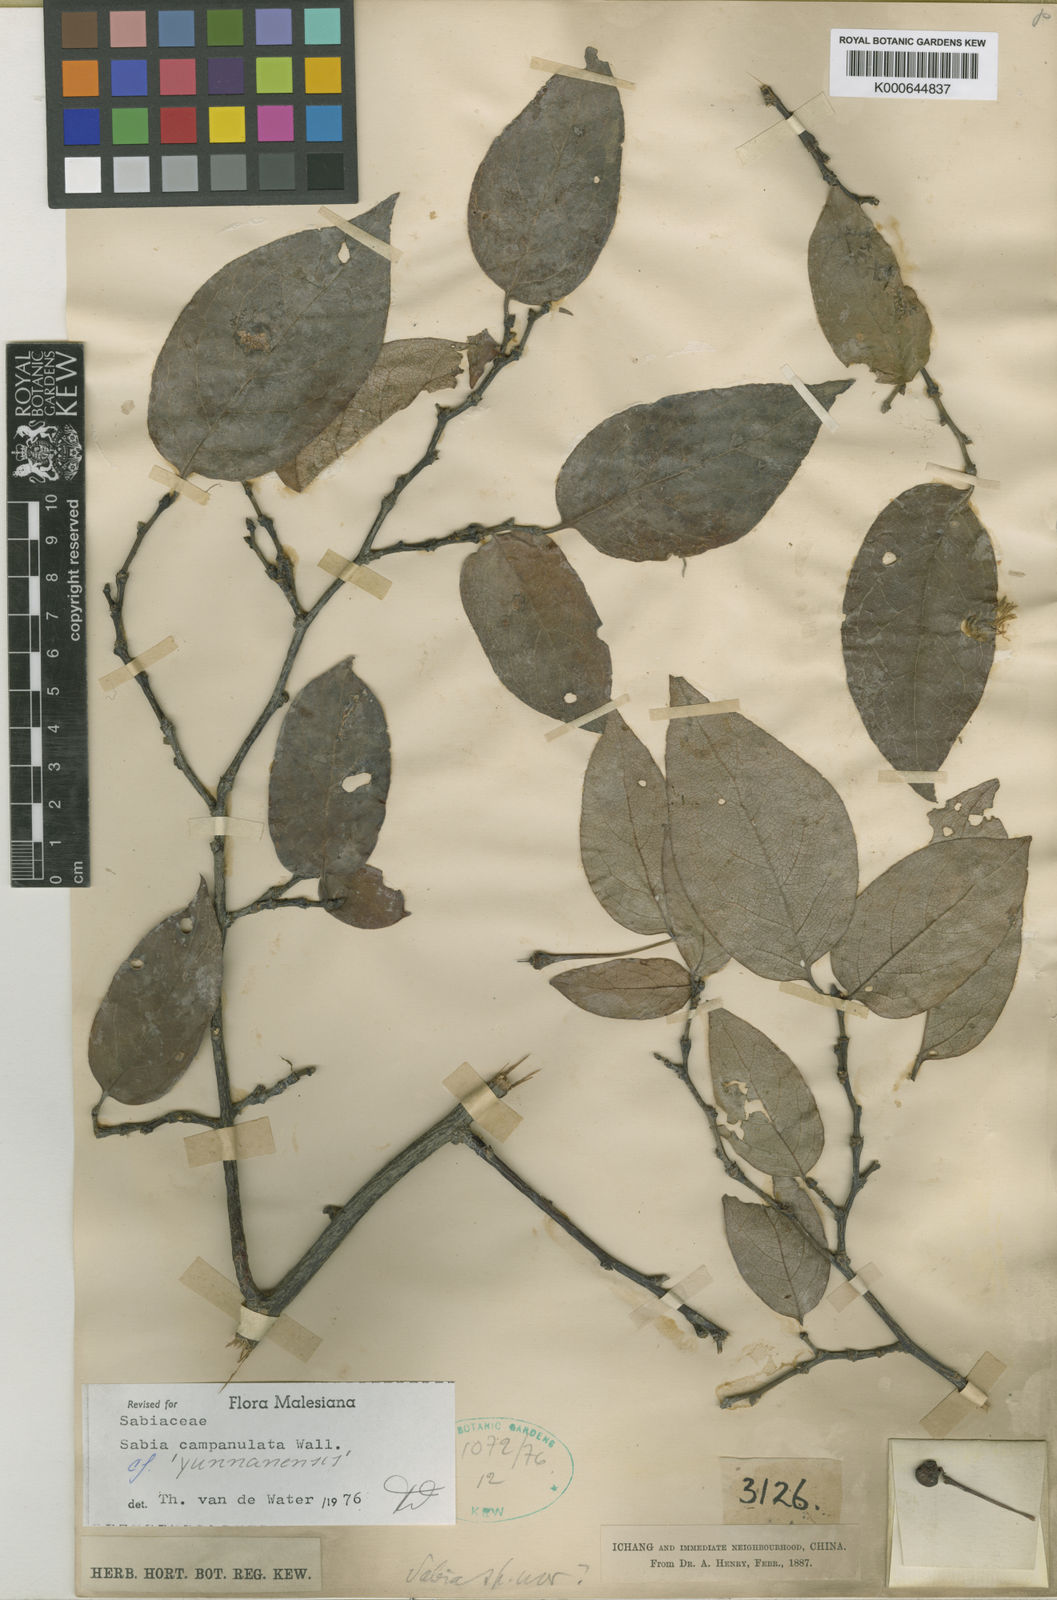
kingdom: Plantae
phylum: Tracheophyta
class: Magnoliopsida
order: Proteales
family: Sabiaceae
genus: Sabia
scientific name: Sabia campanulata
